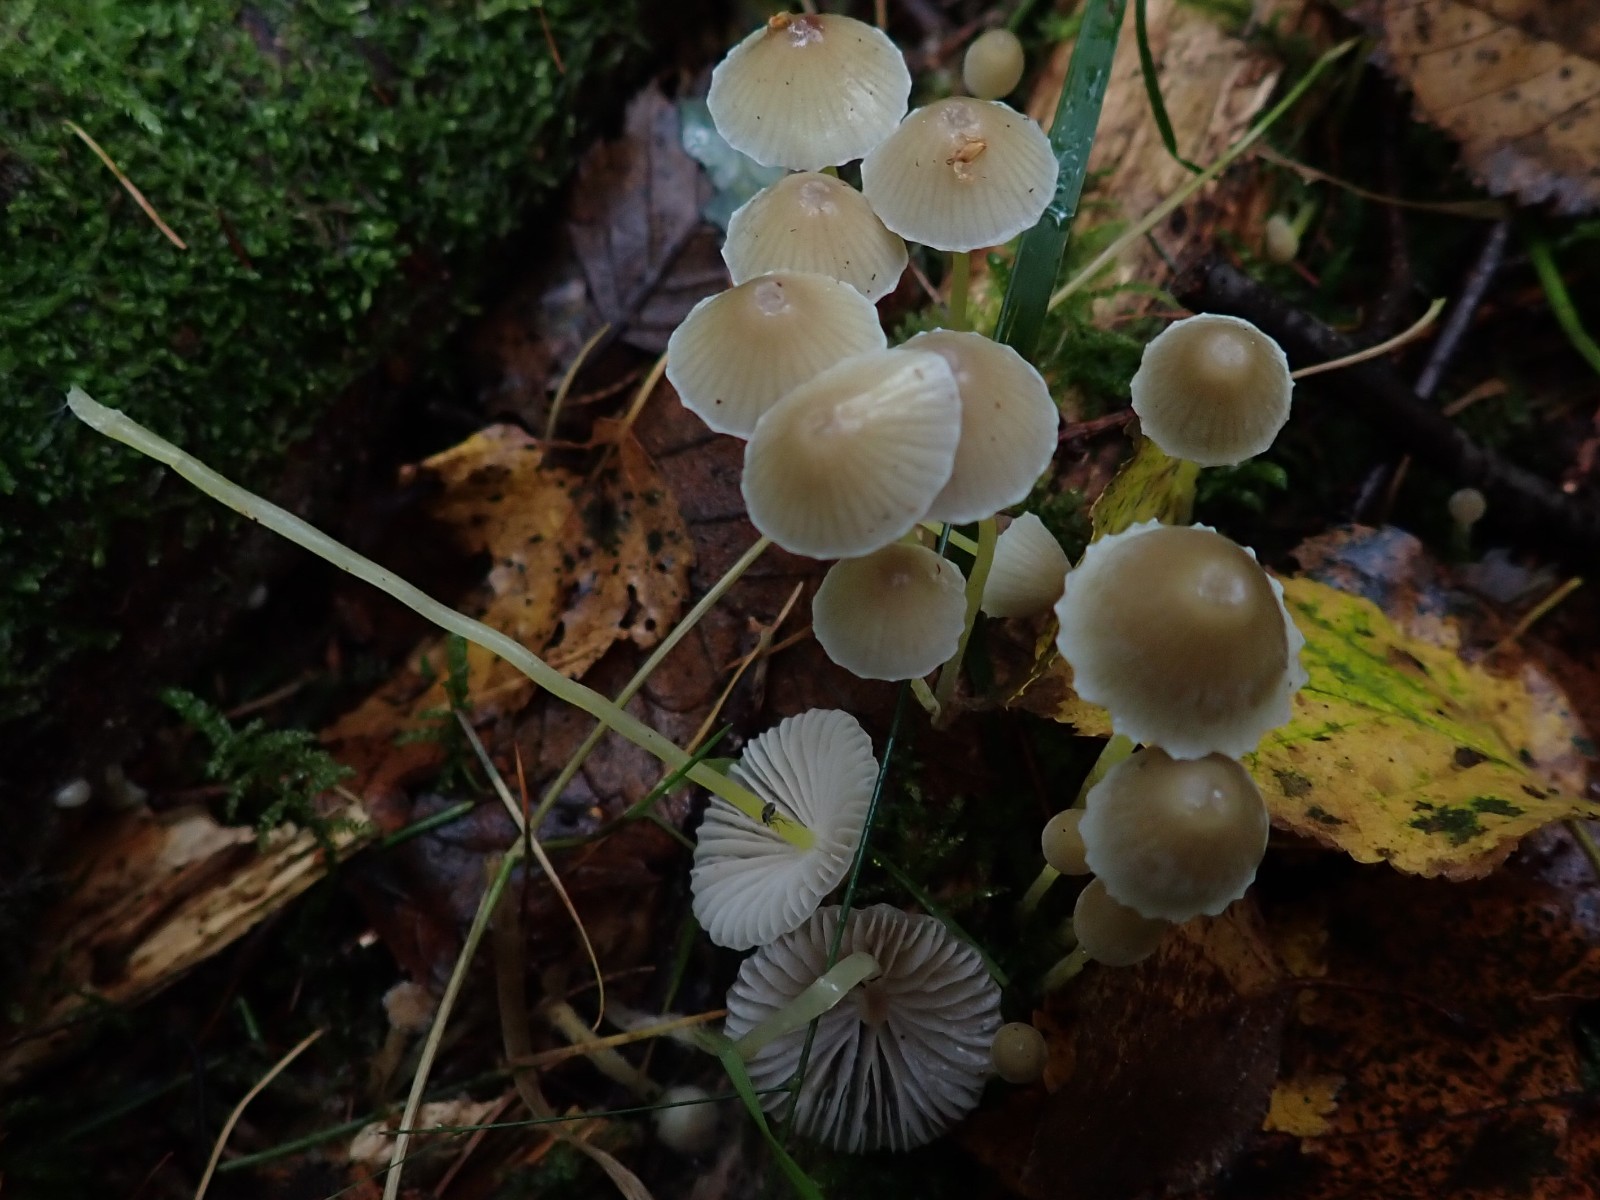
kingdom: Fungi
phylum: Basidiomycota
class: Agaricomycetes
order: Agaricales
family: Mycenaceae
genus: Mycena
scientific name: Mycena epipterygia
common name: gulstokket huesvamp
